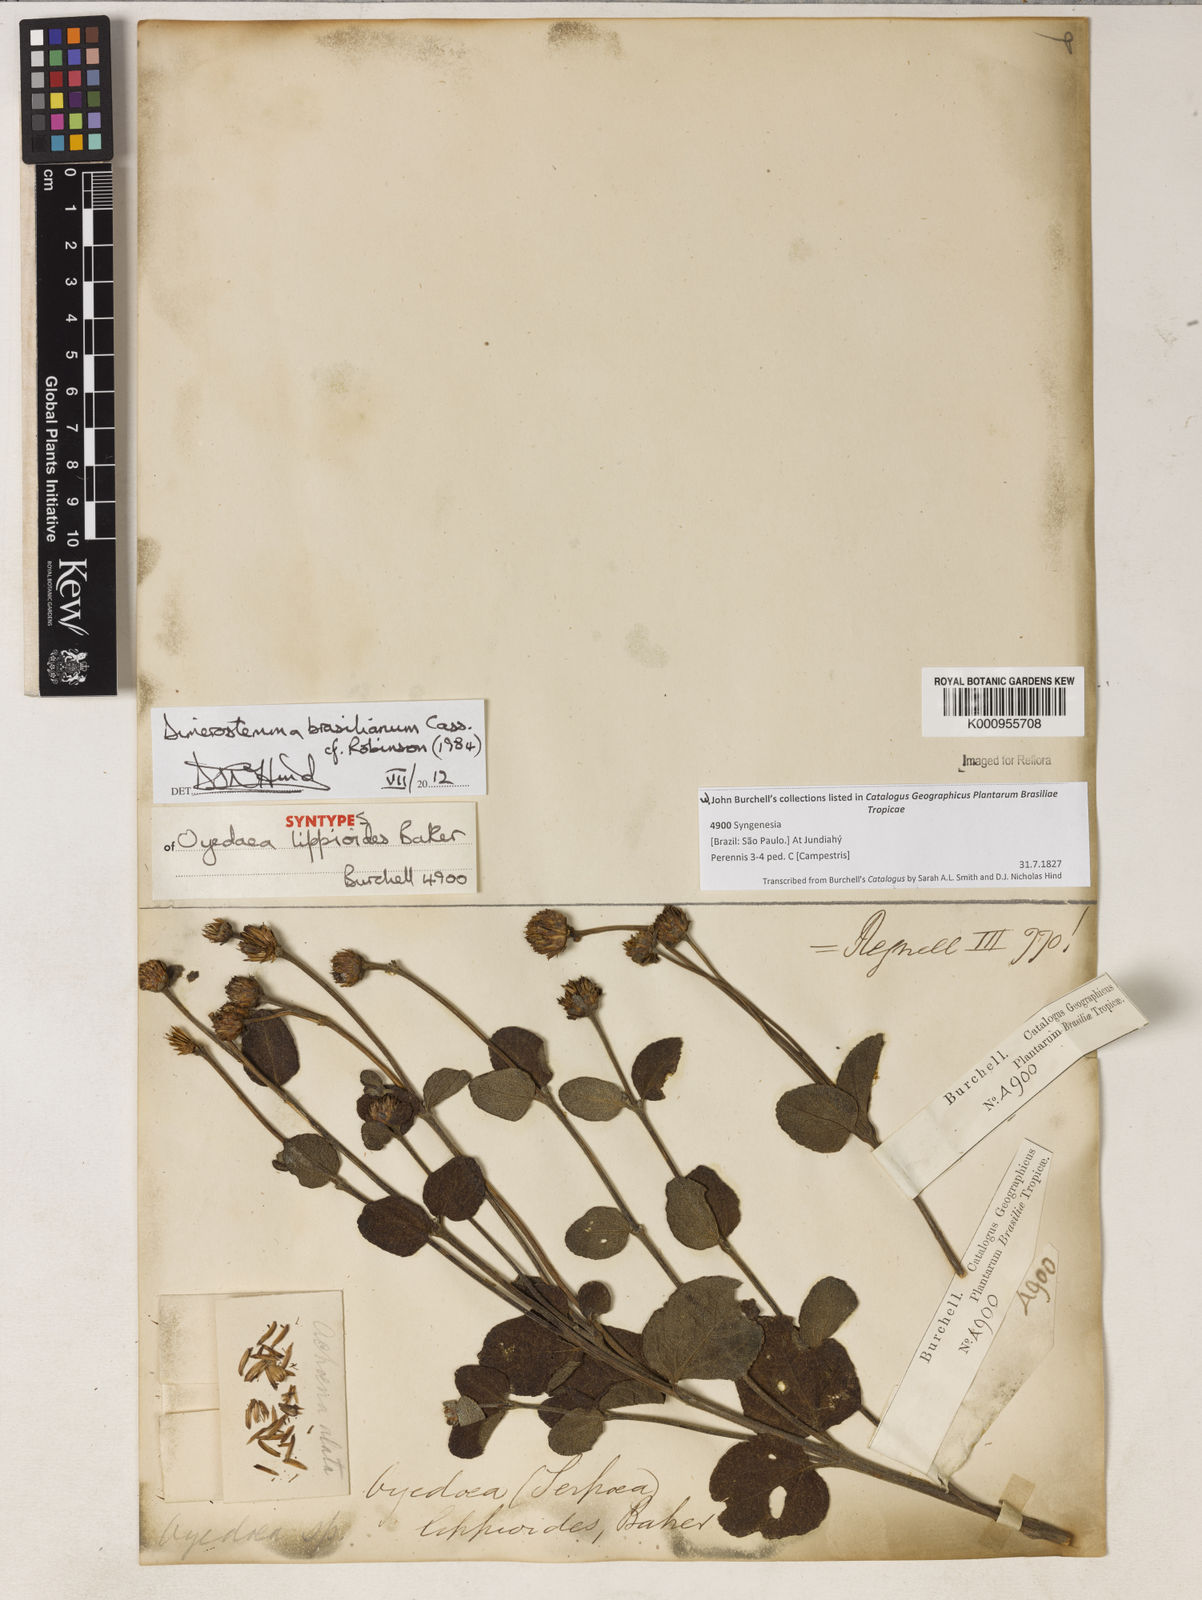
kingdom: Plantae
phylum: Tracheophyta
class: Magnoliopsida
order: Asterales
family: Asteraceae
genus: Dimerostemma
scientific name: Dimerostemma brasilianum
